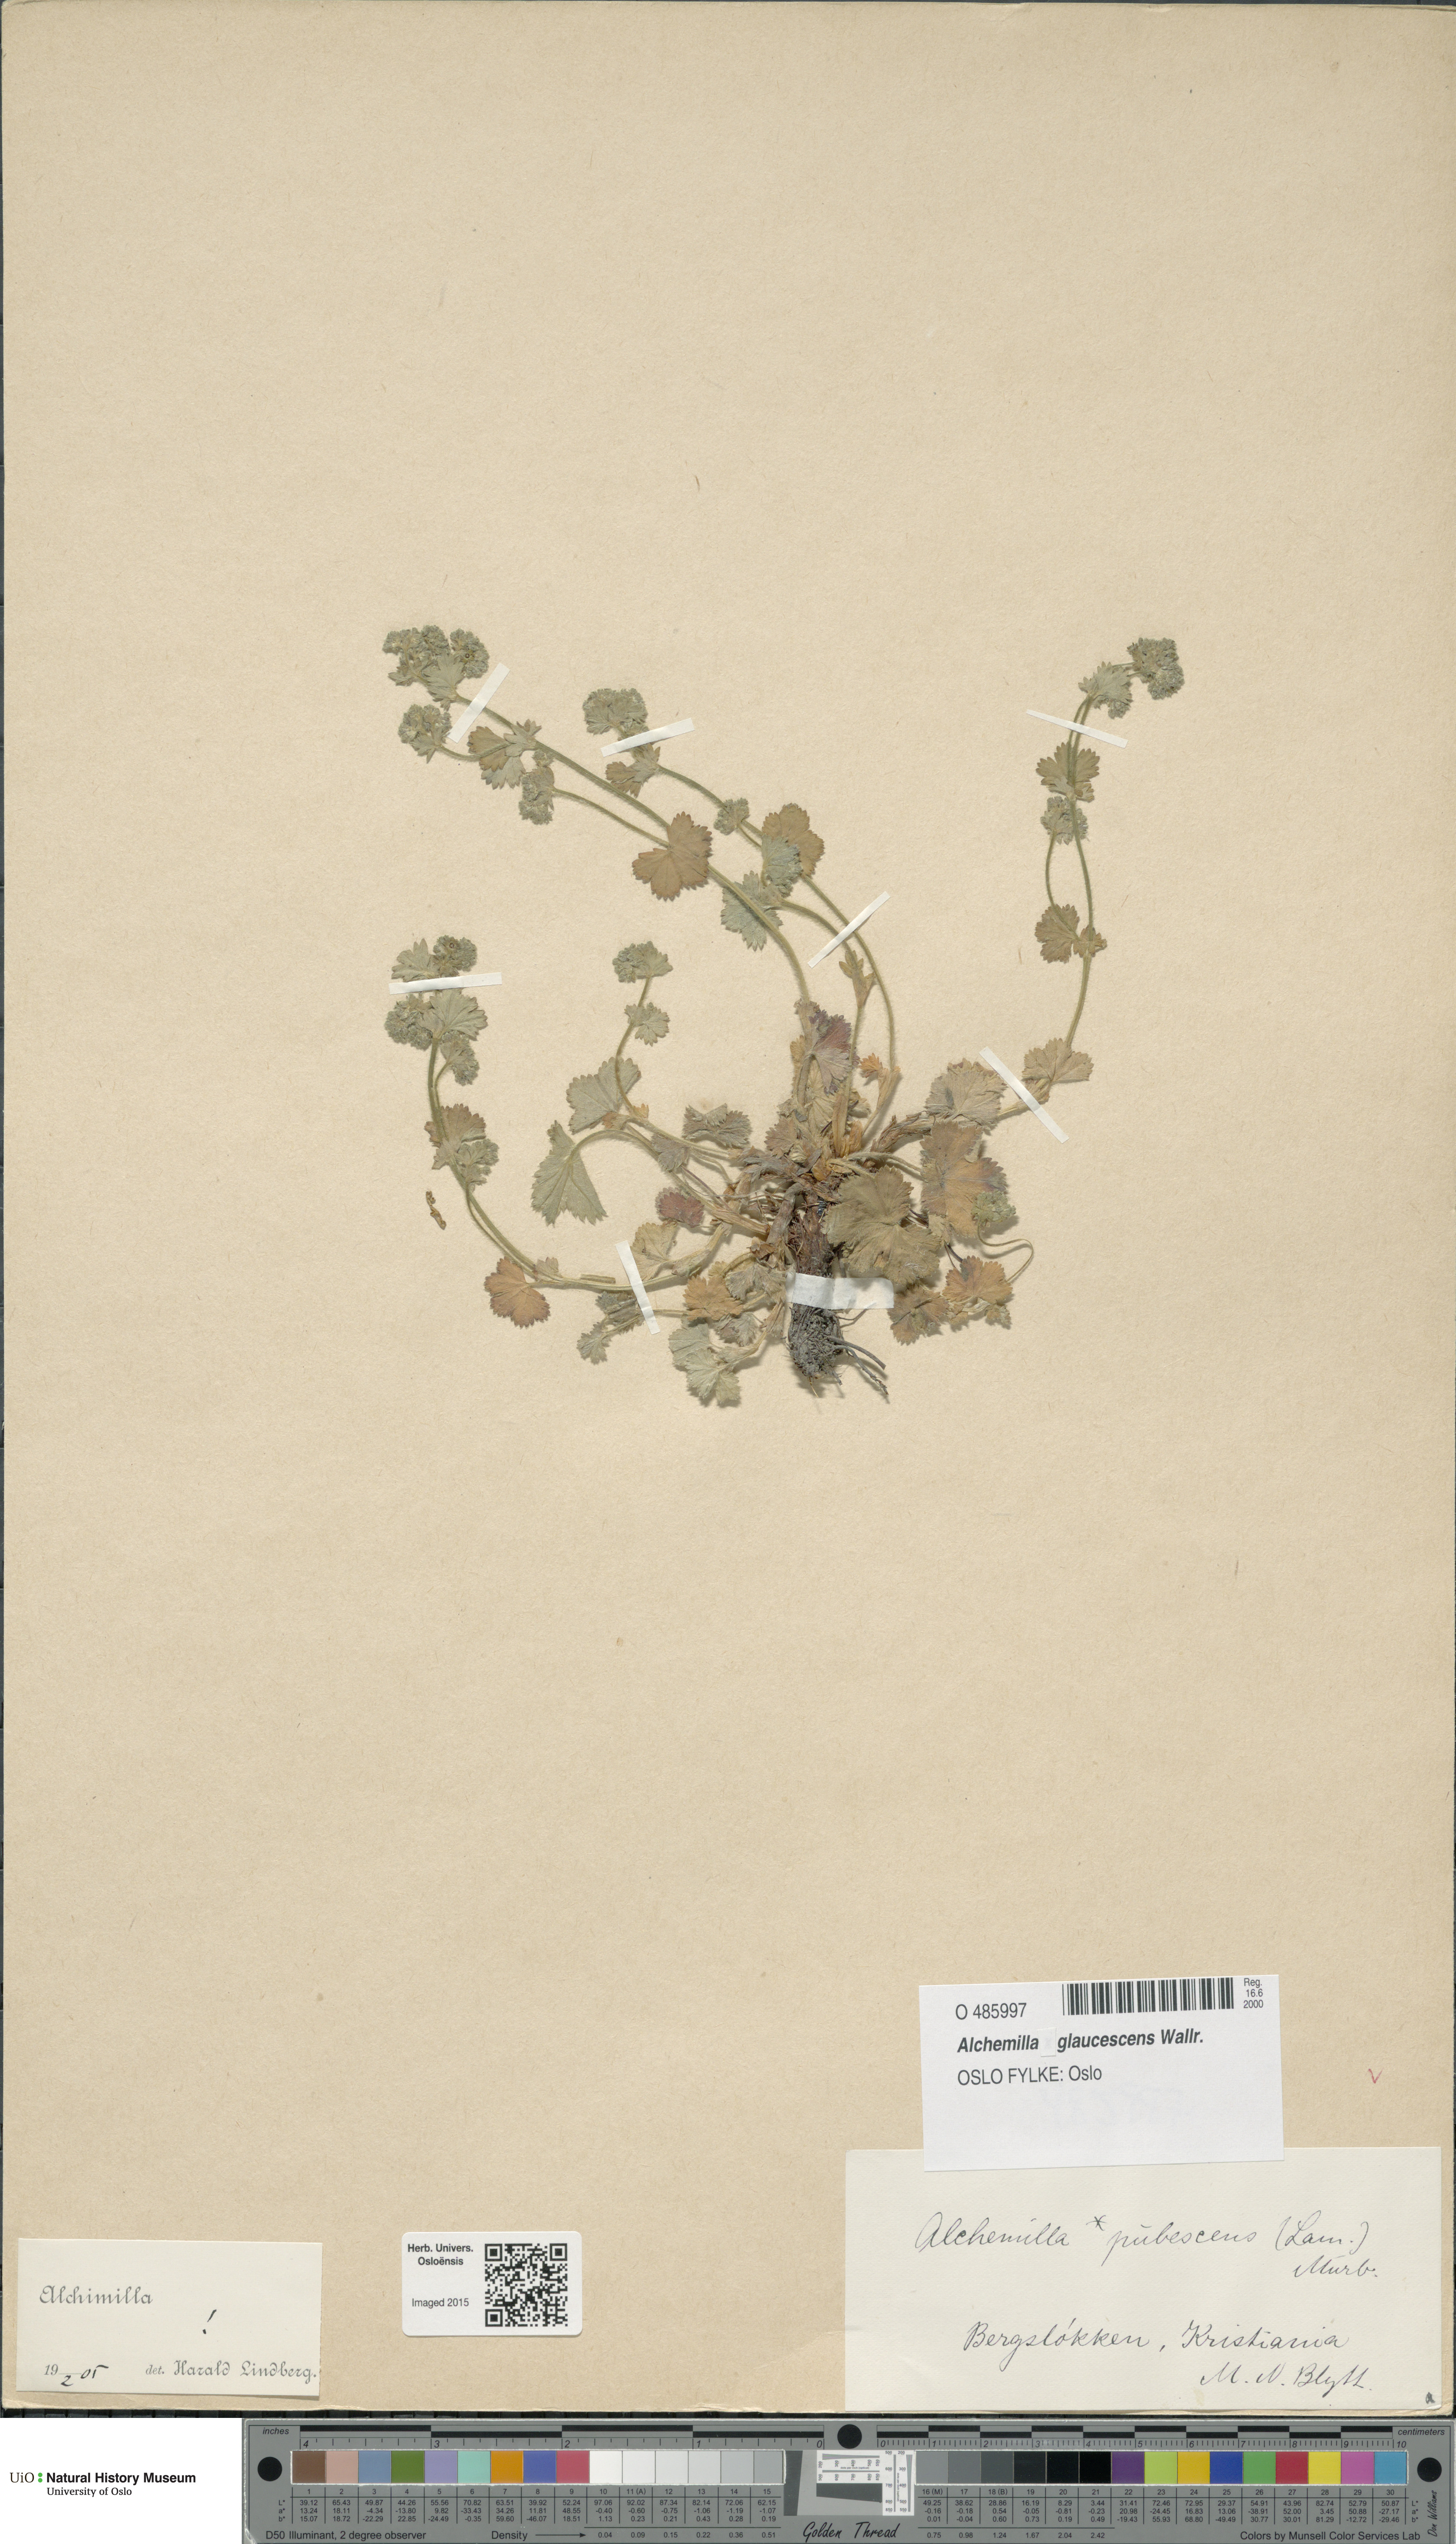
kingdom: Plantae
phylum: Tracheophyta
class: Magnoliopsida
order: Rosales
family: Rosaceae
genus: Alchemilla
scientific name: Alchemilla glaucescens
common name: Silky lady's mantle
